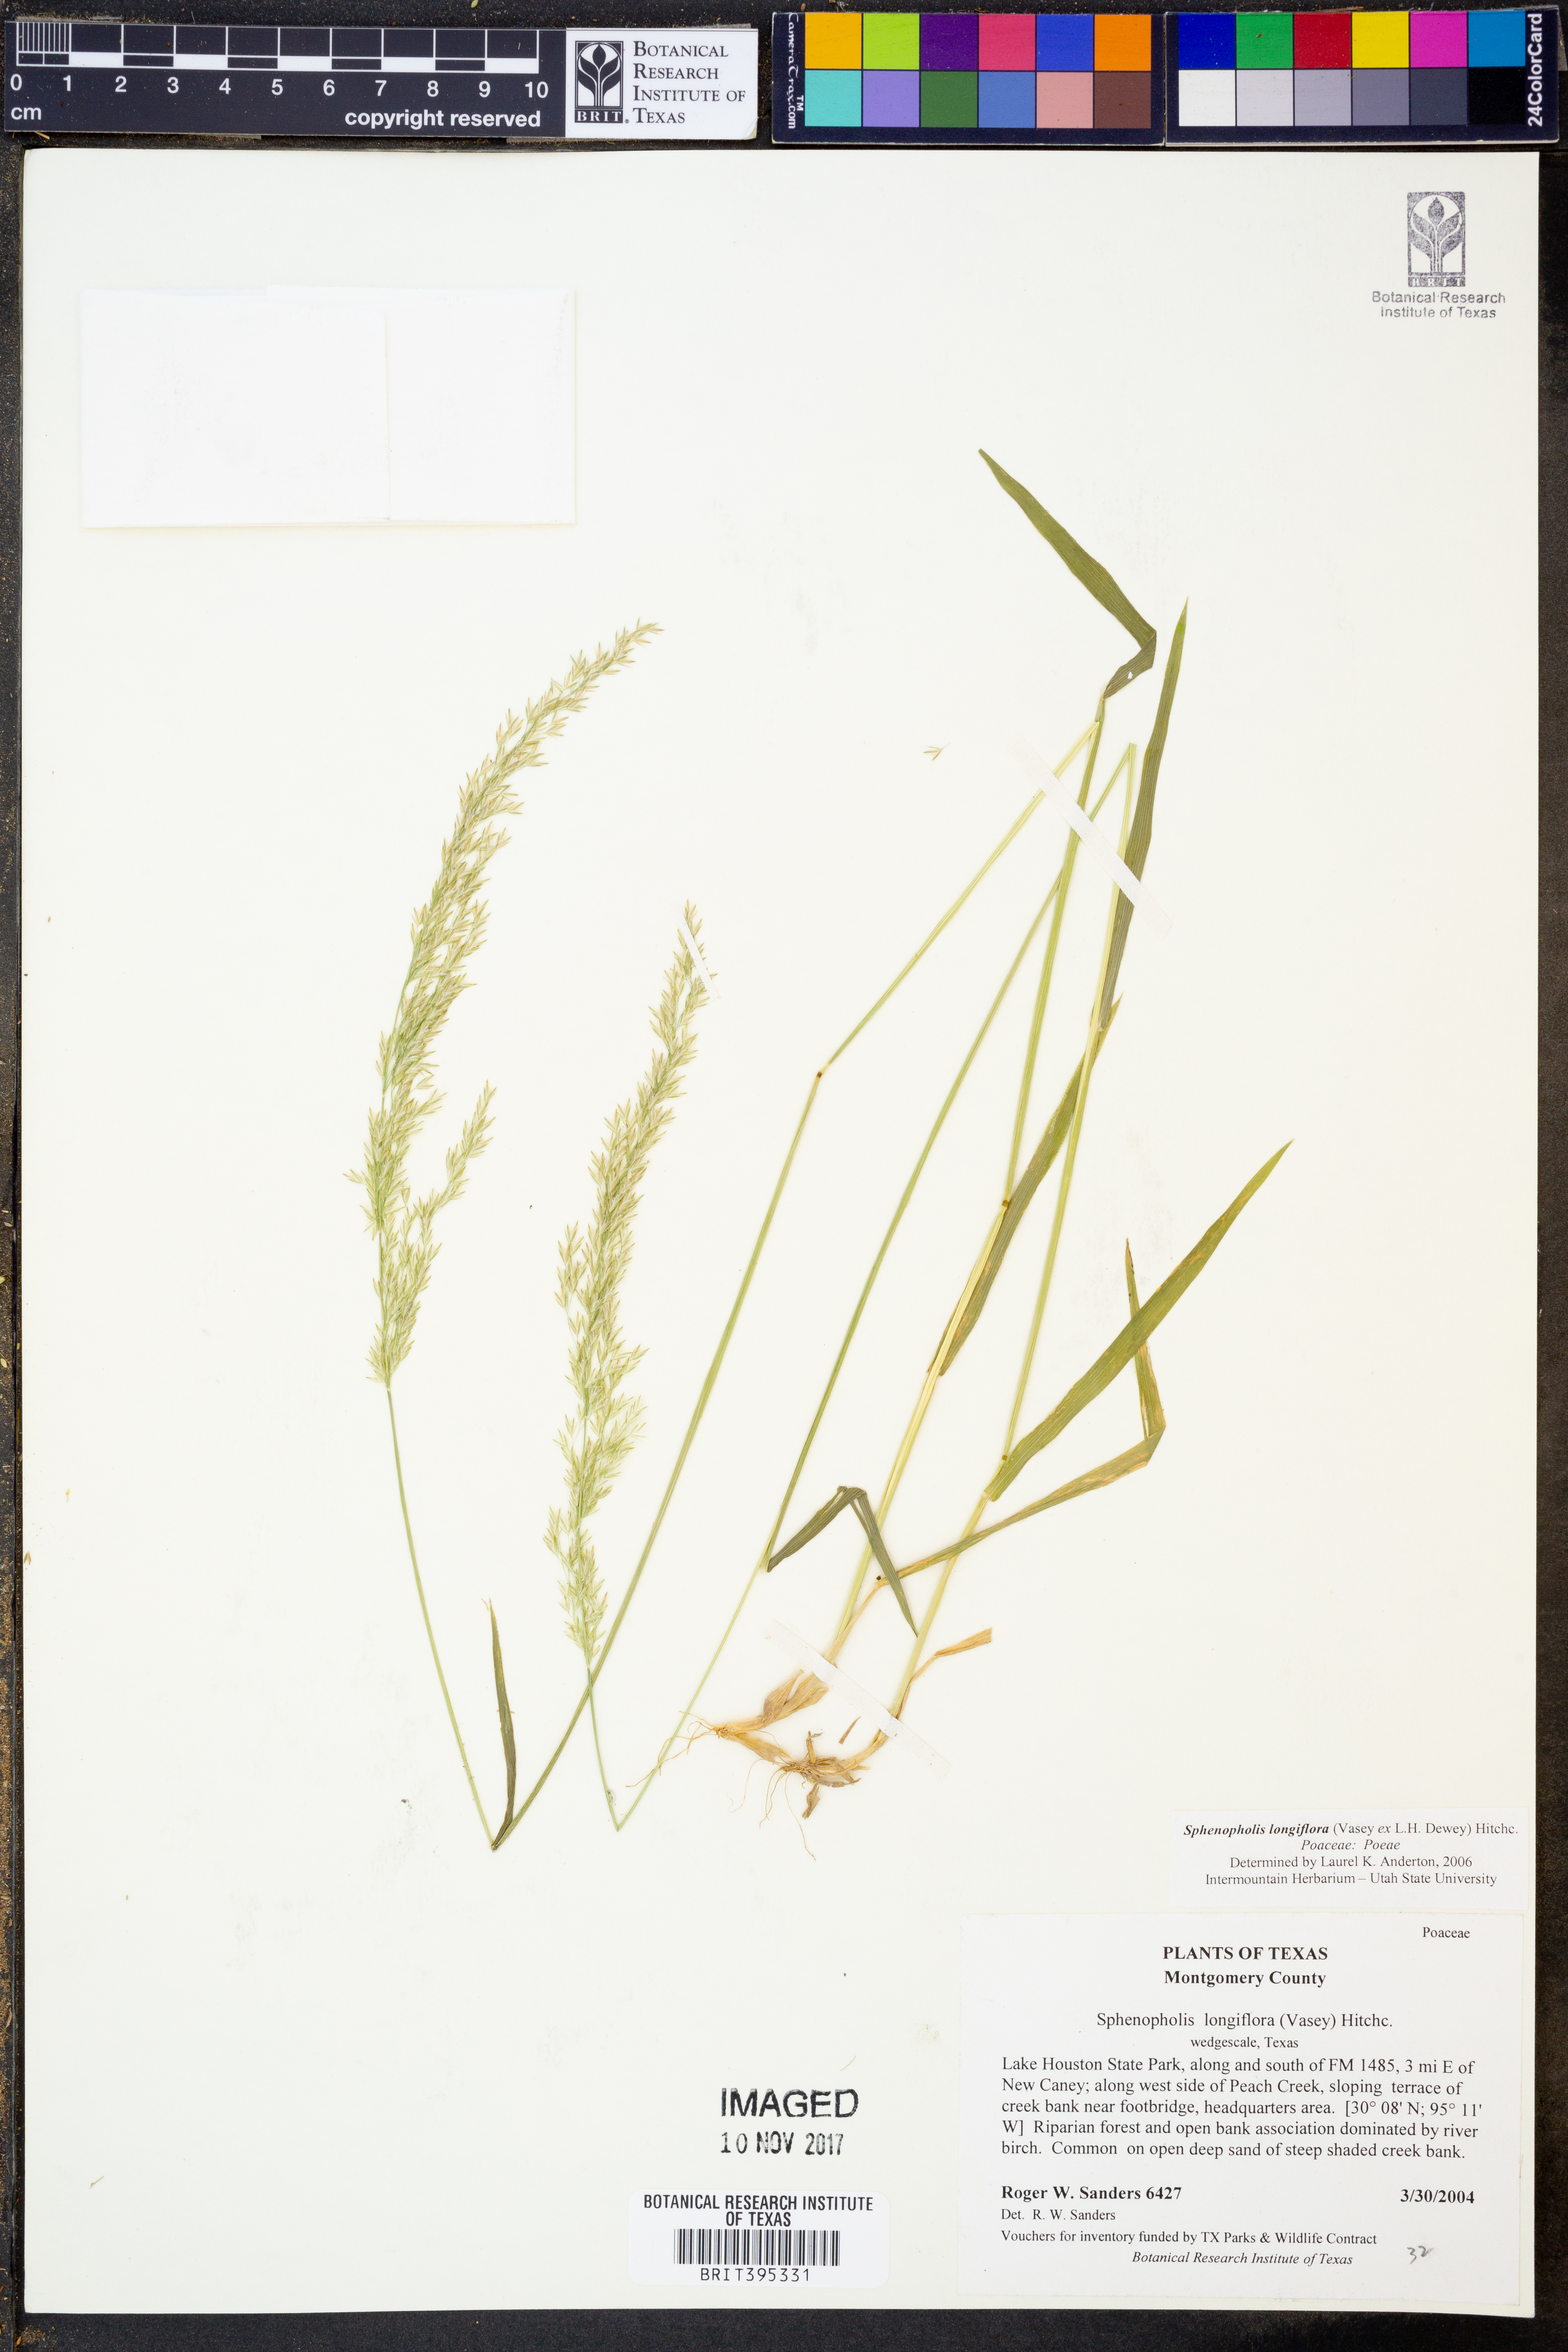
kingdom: Plantae
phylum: Tracheophyta
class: Liliopsida
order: Poales
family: Poaceae
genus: Sphenopholis
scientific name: Sphenopholis intermedia
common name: Intermediate eaton's grass
